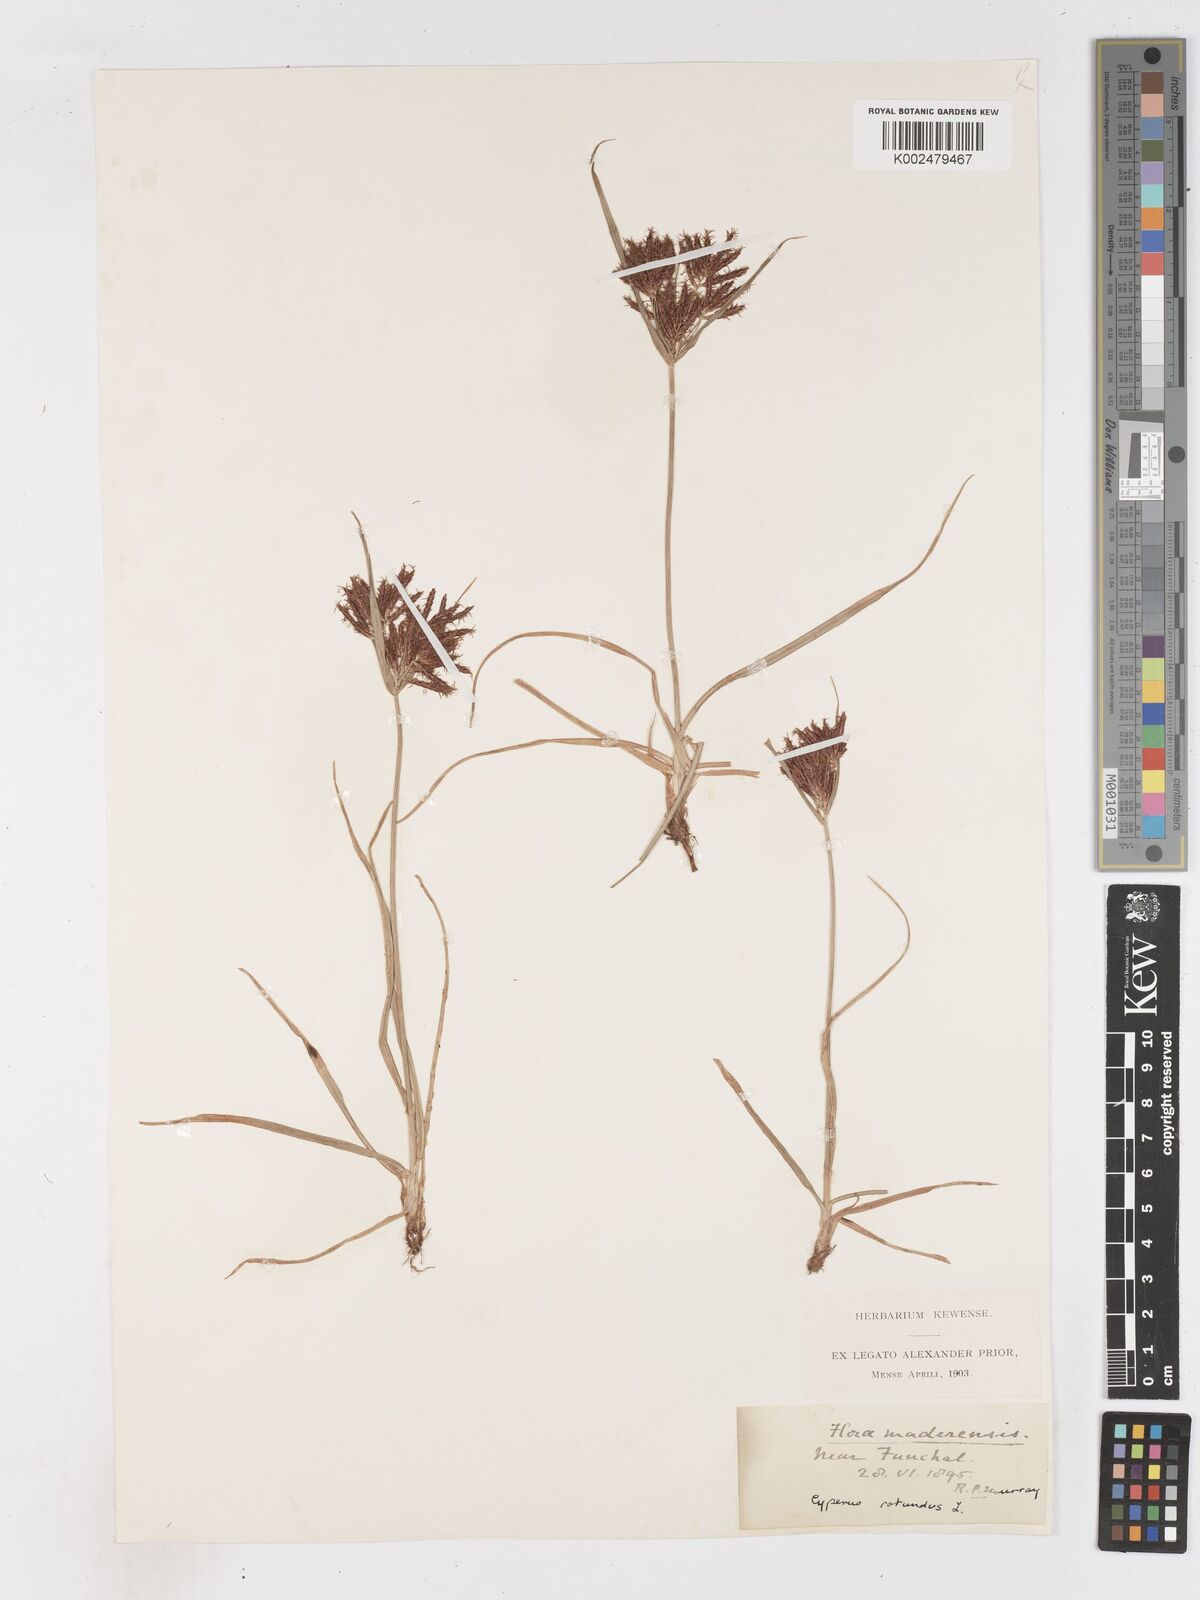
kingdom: Plantae
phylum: Tracheophyta
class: Liliopsida
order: Poales
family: Cyperaceae
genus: Cyperus
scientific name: Cyperus rotundus
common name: Nutgrass
